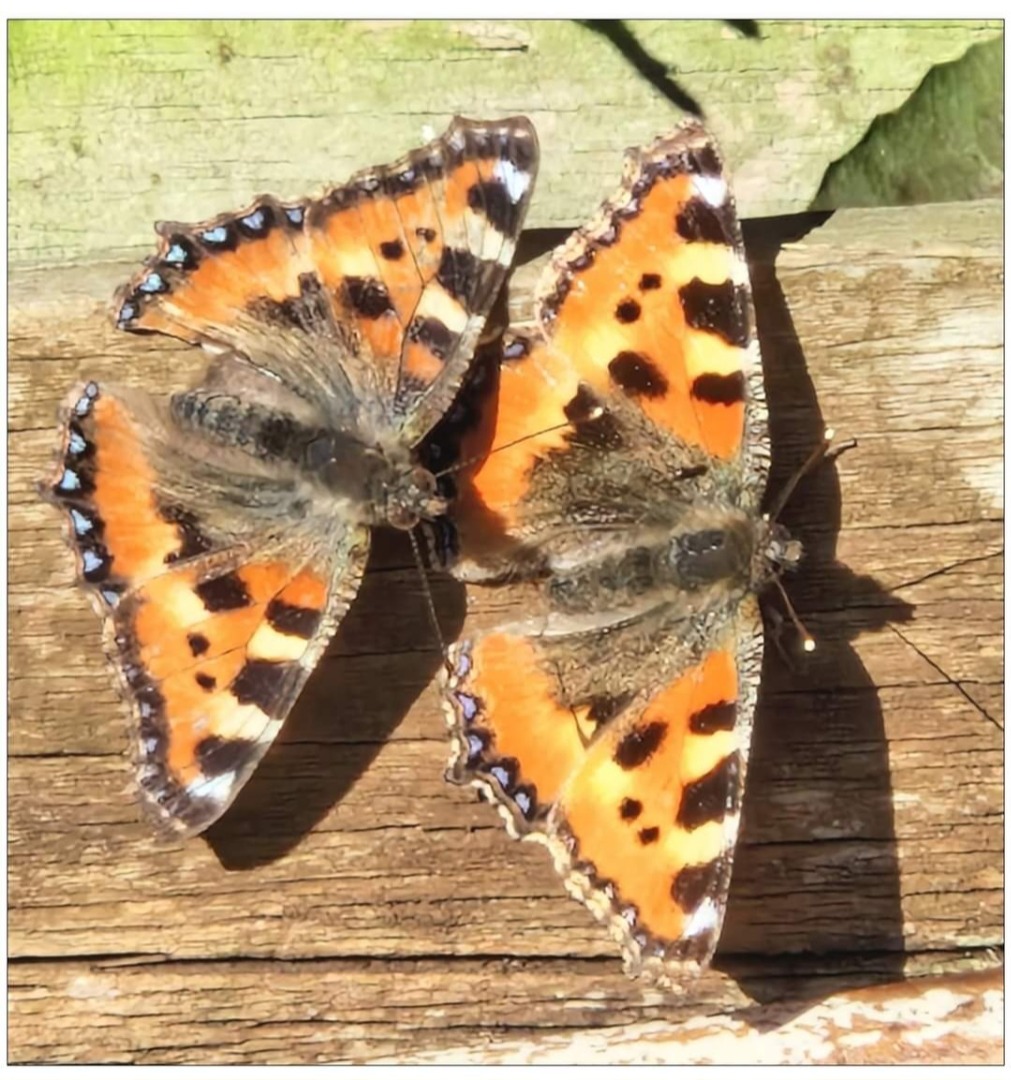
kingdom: Animalia
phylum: Arthropoda
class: Insecta
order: Lepidoptera
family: Nymphalidae
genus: Aglais
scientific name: Aglais urticae
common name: Nældens takvinge
